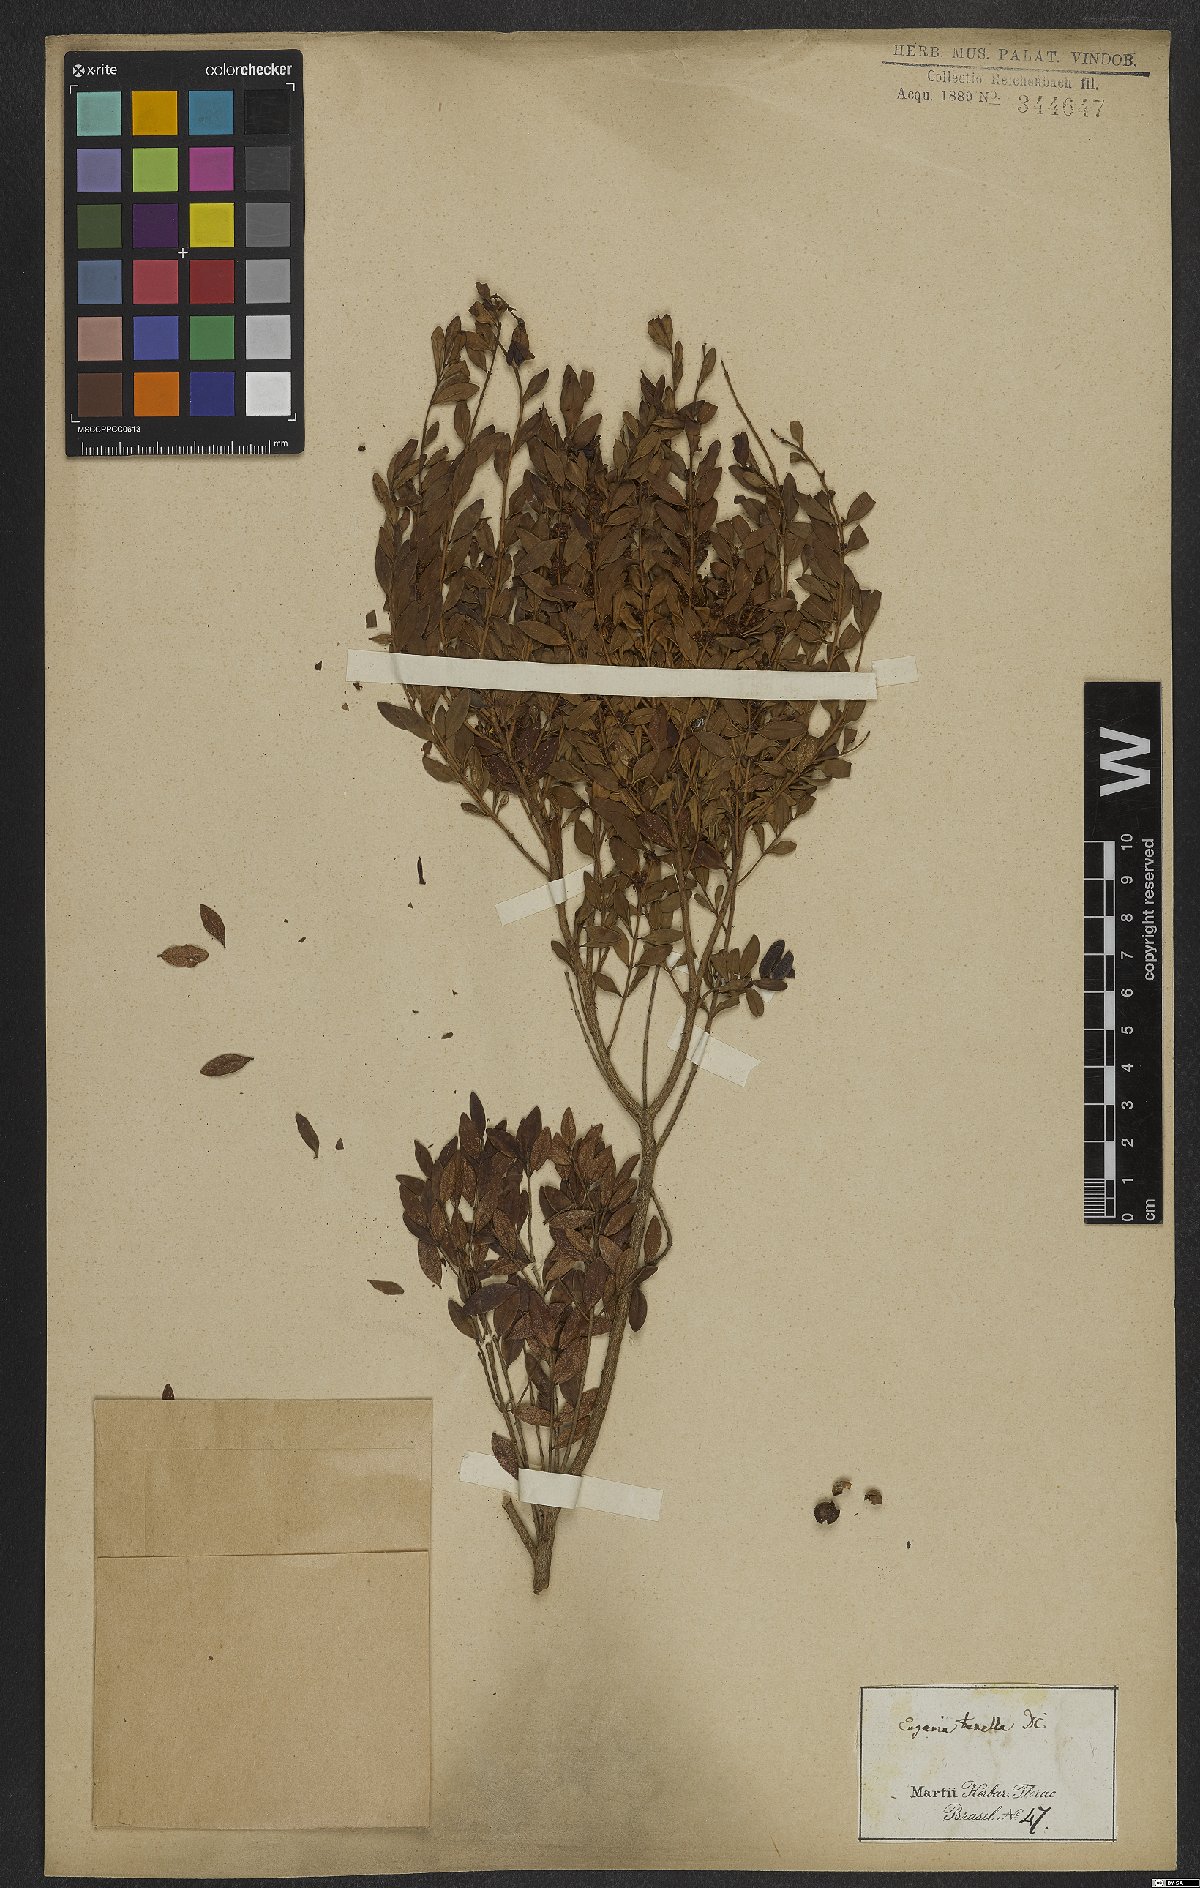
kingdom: Plantae
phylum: Tracheophyta
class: Magnoliopsida
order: Myrtales
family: Myrtaceae
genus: Myrciaria
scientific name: Myrciaria tenella
